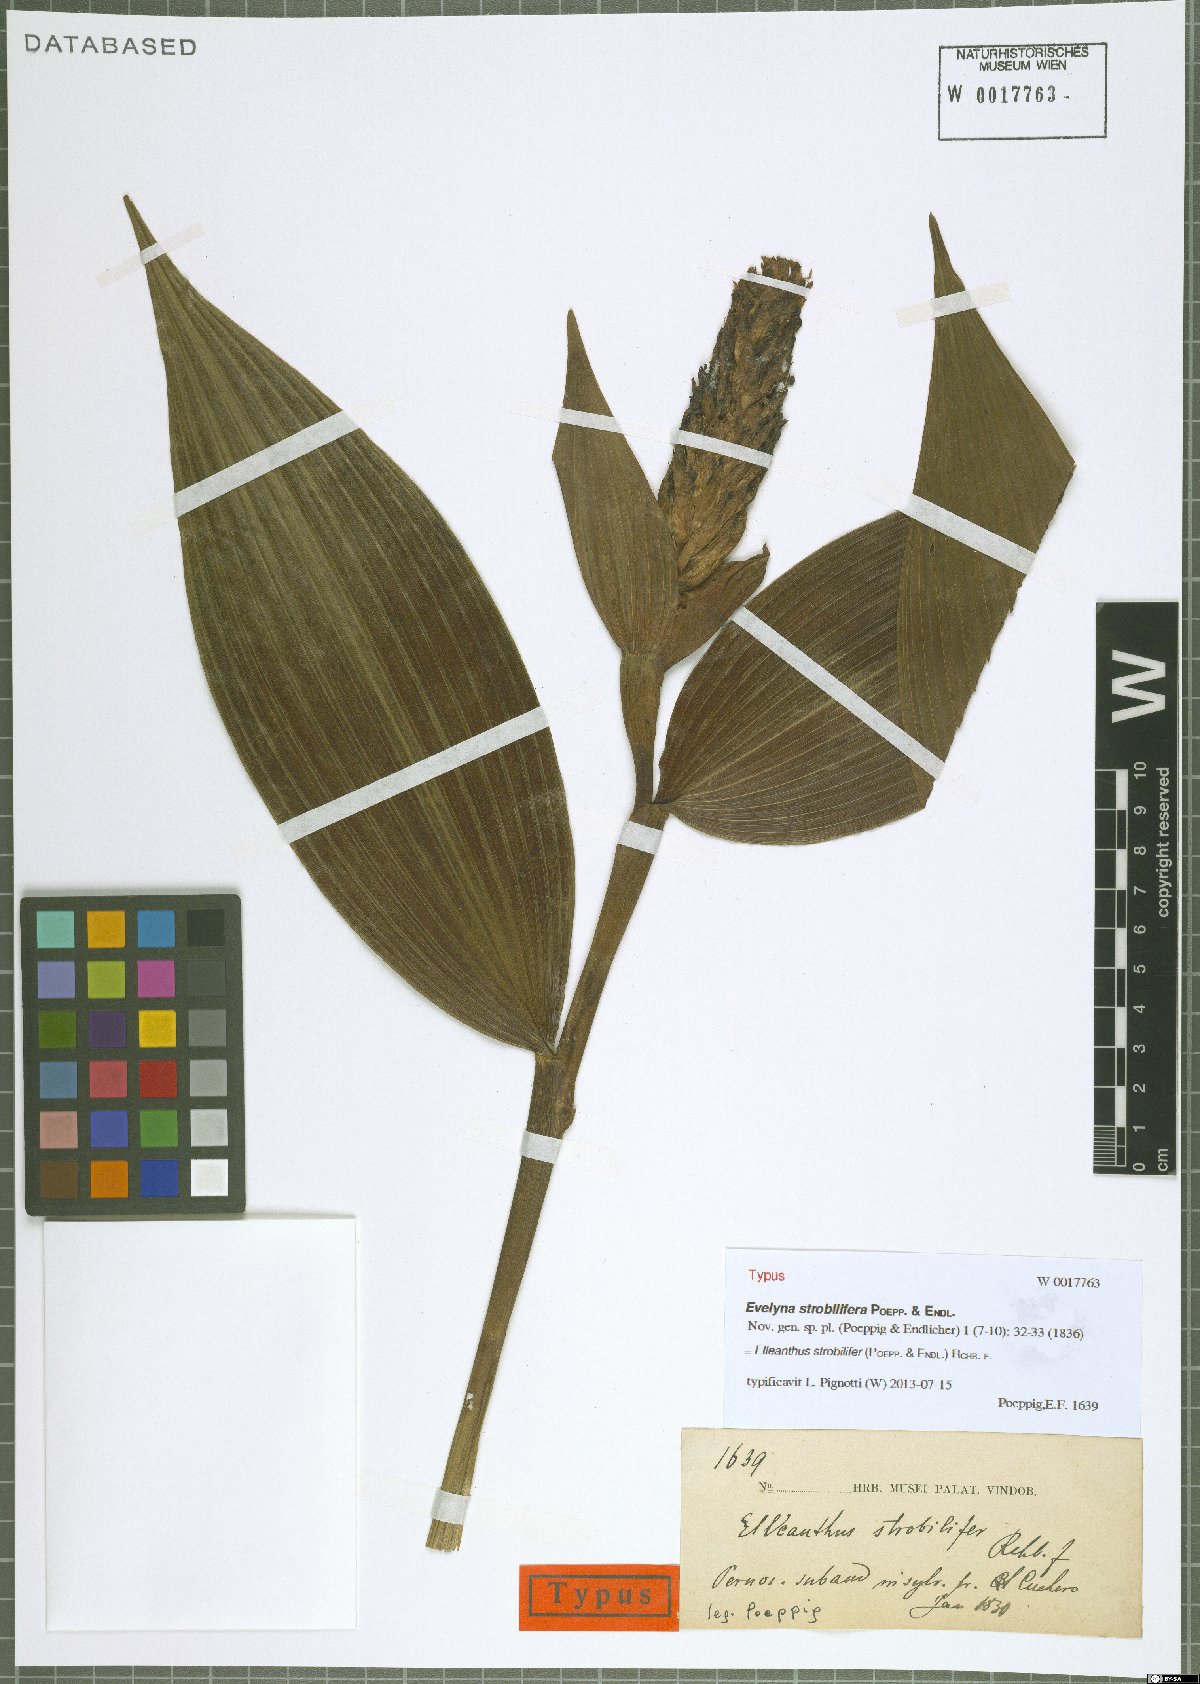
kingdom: Plantae
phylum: Tracheophyta
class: Liliopsida
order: Asparagales
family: Orchidaceae
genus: Elleanthus
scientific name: Elleanthus strobilifer
